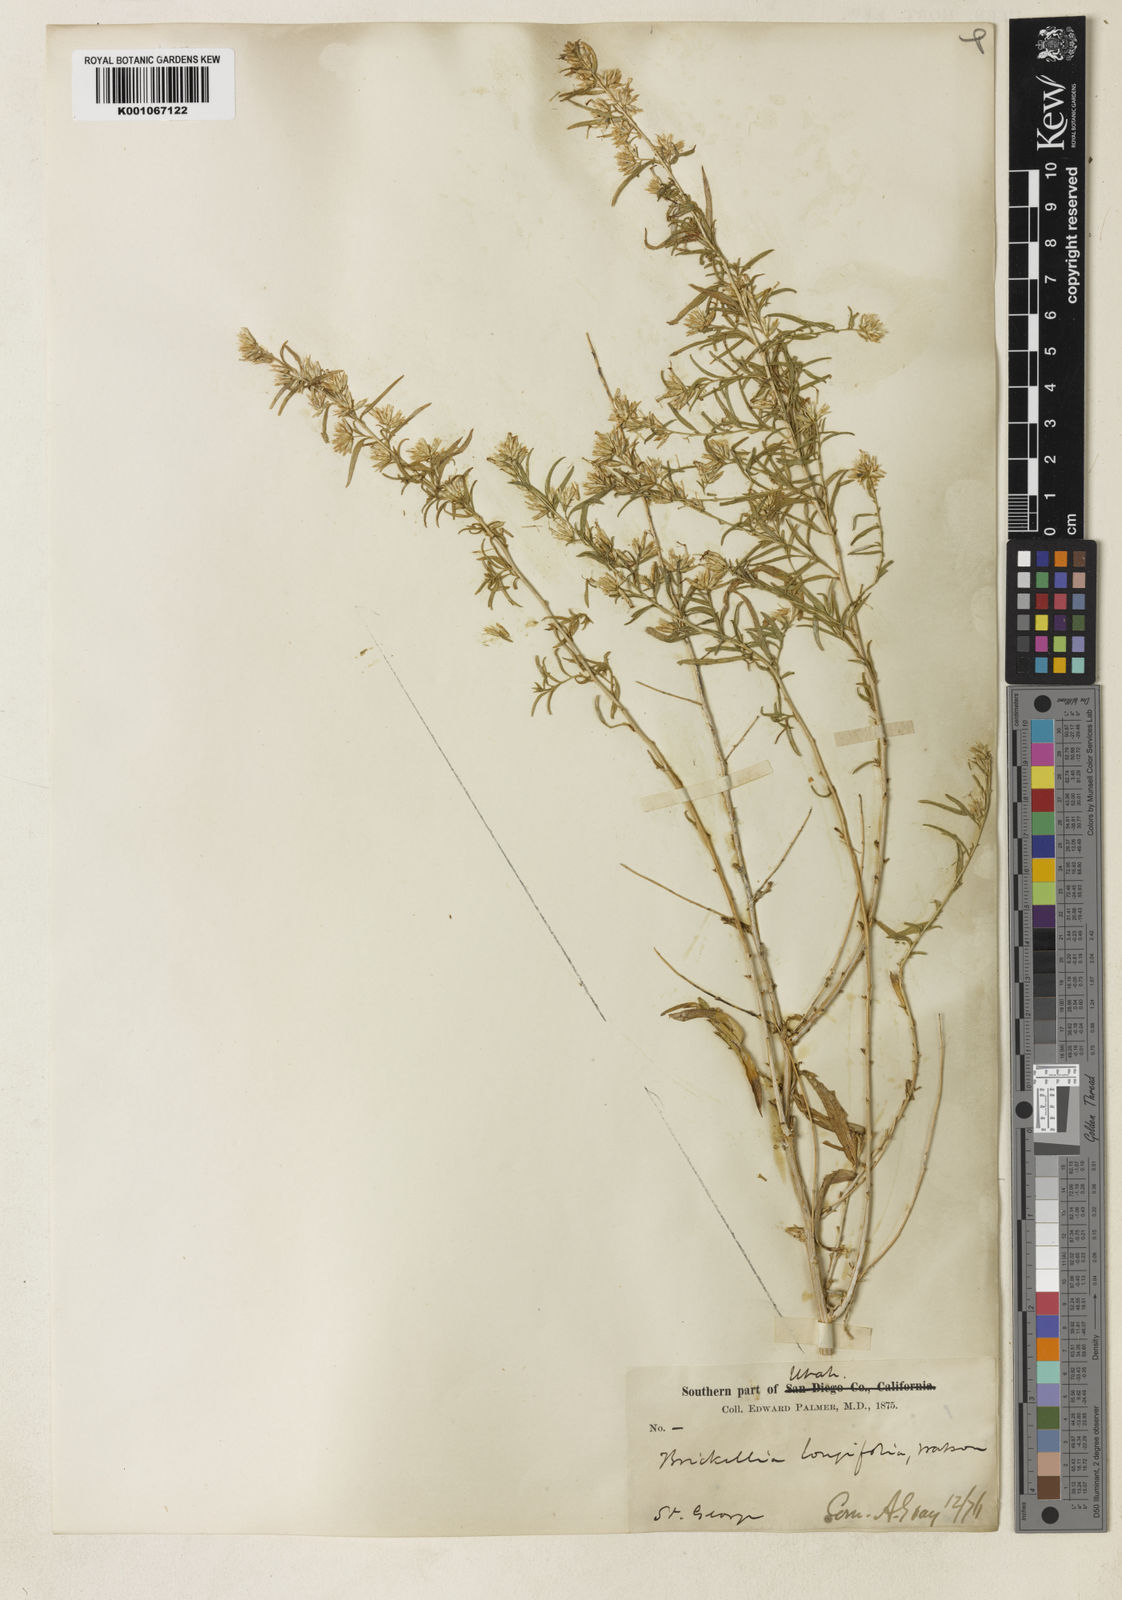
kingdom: Plantae
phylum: Tracheophyta
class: Magnoliopsida
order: Asterales
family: Asteraceae
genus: Brickellia
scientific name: Brickellia longifolia
